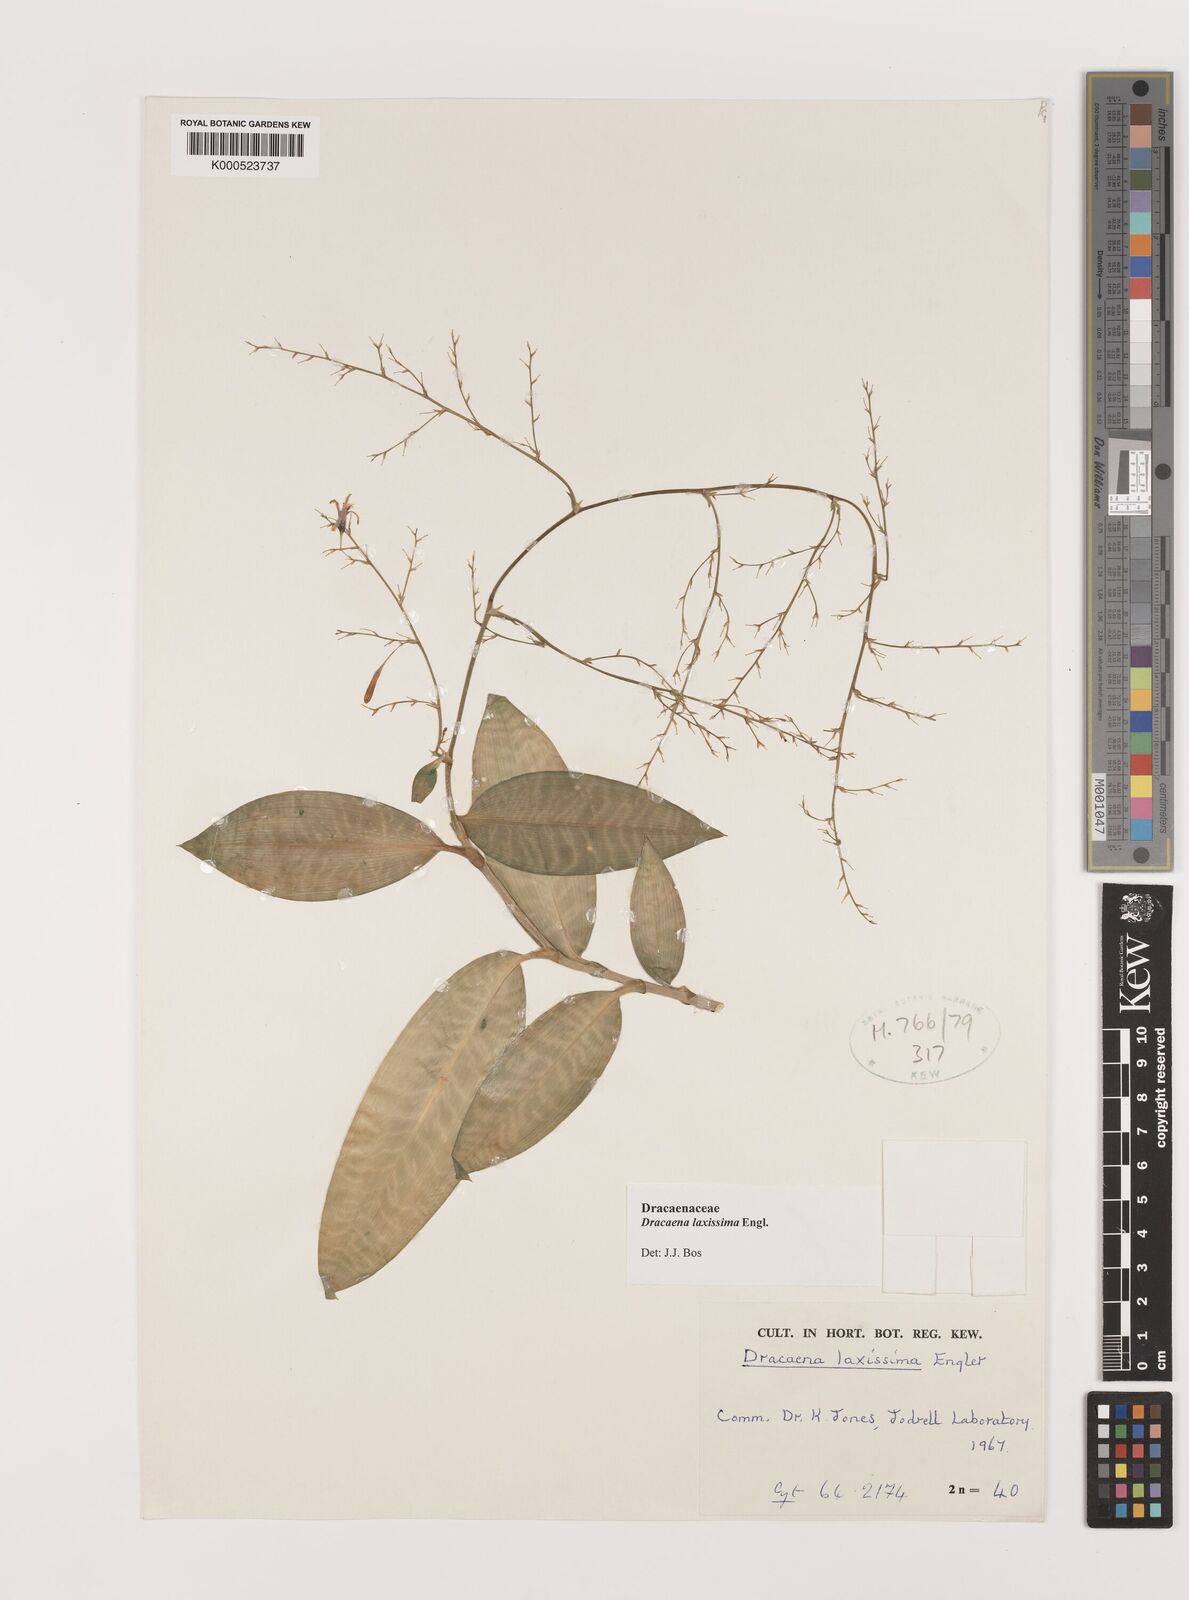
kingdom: Plantae
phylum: Tracheophyta
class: Liliopsida
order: Asparagales
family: Asparagaceae
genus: Dracaena
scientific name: Dracaena laxissima
